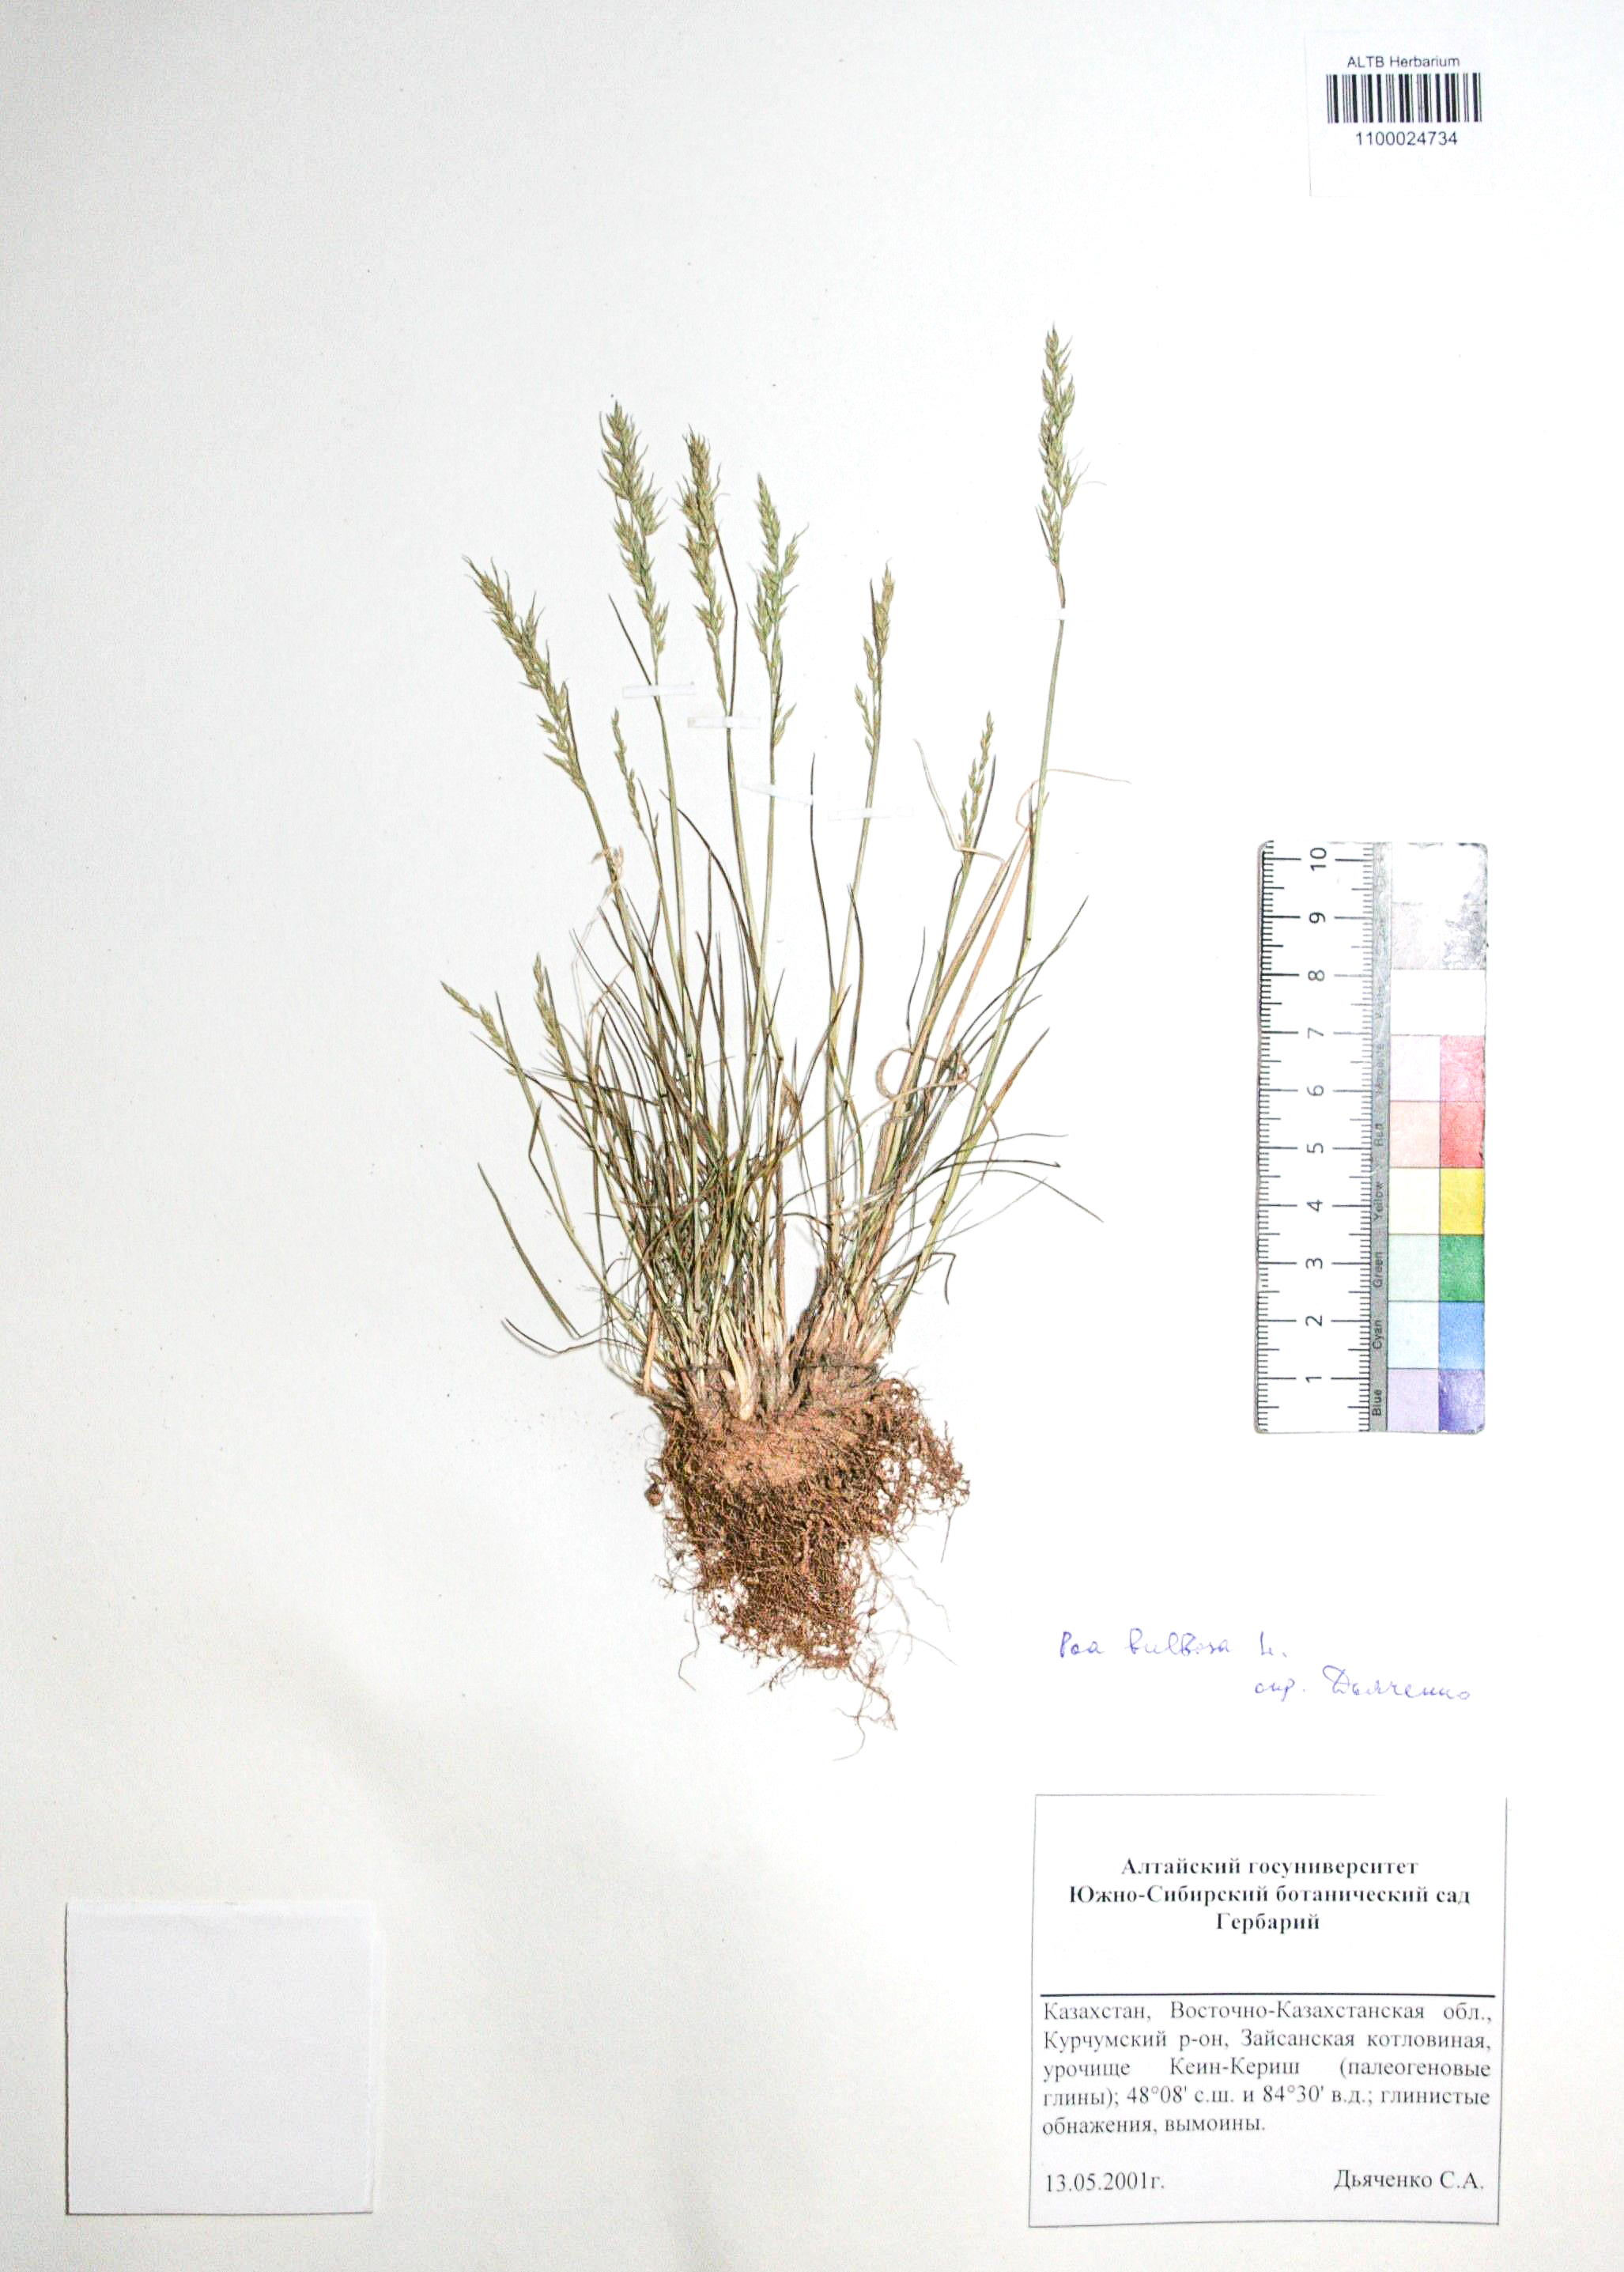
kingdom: Plantae
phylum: Tracheophyta
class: Liliopsida
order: Poales
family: Poaceae
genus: Poa
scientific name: Poa bulbosa
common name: Bulbous bluegrass
